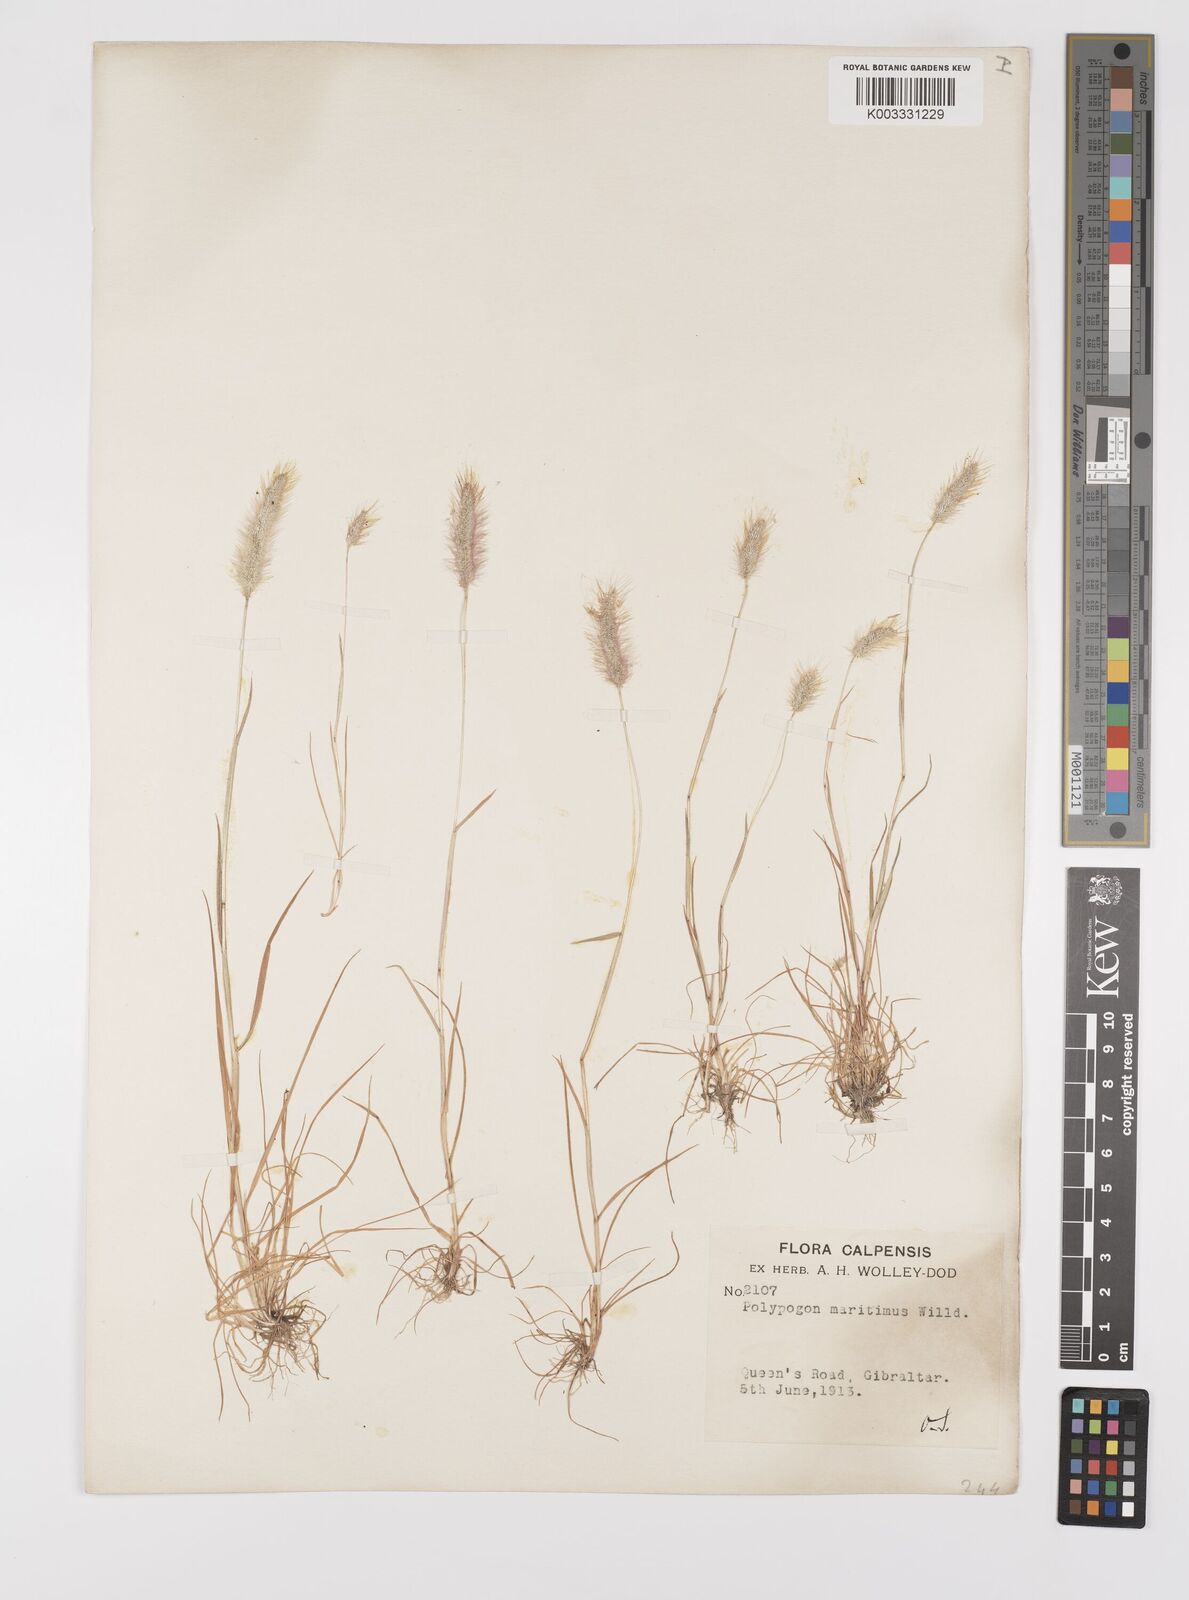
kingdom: Plantae
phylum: Tracheophyta
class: Liliopsida
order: Poales
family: Poaceae
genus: Polypogon
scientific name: Polypogon maritimus
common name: Mediterranean rabbitsfoot grass
